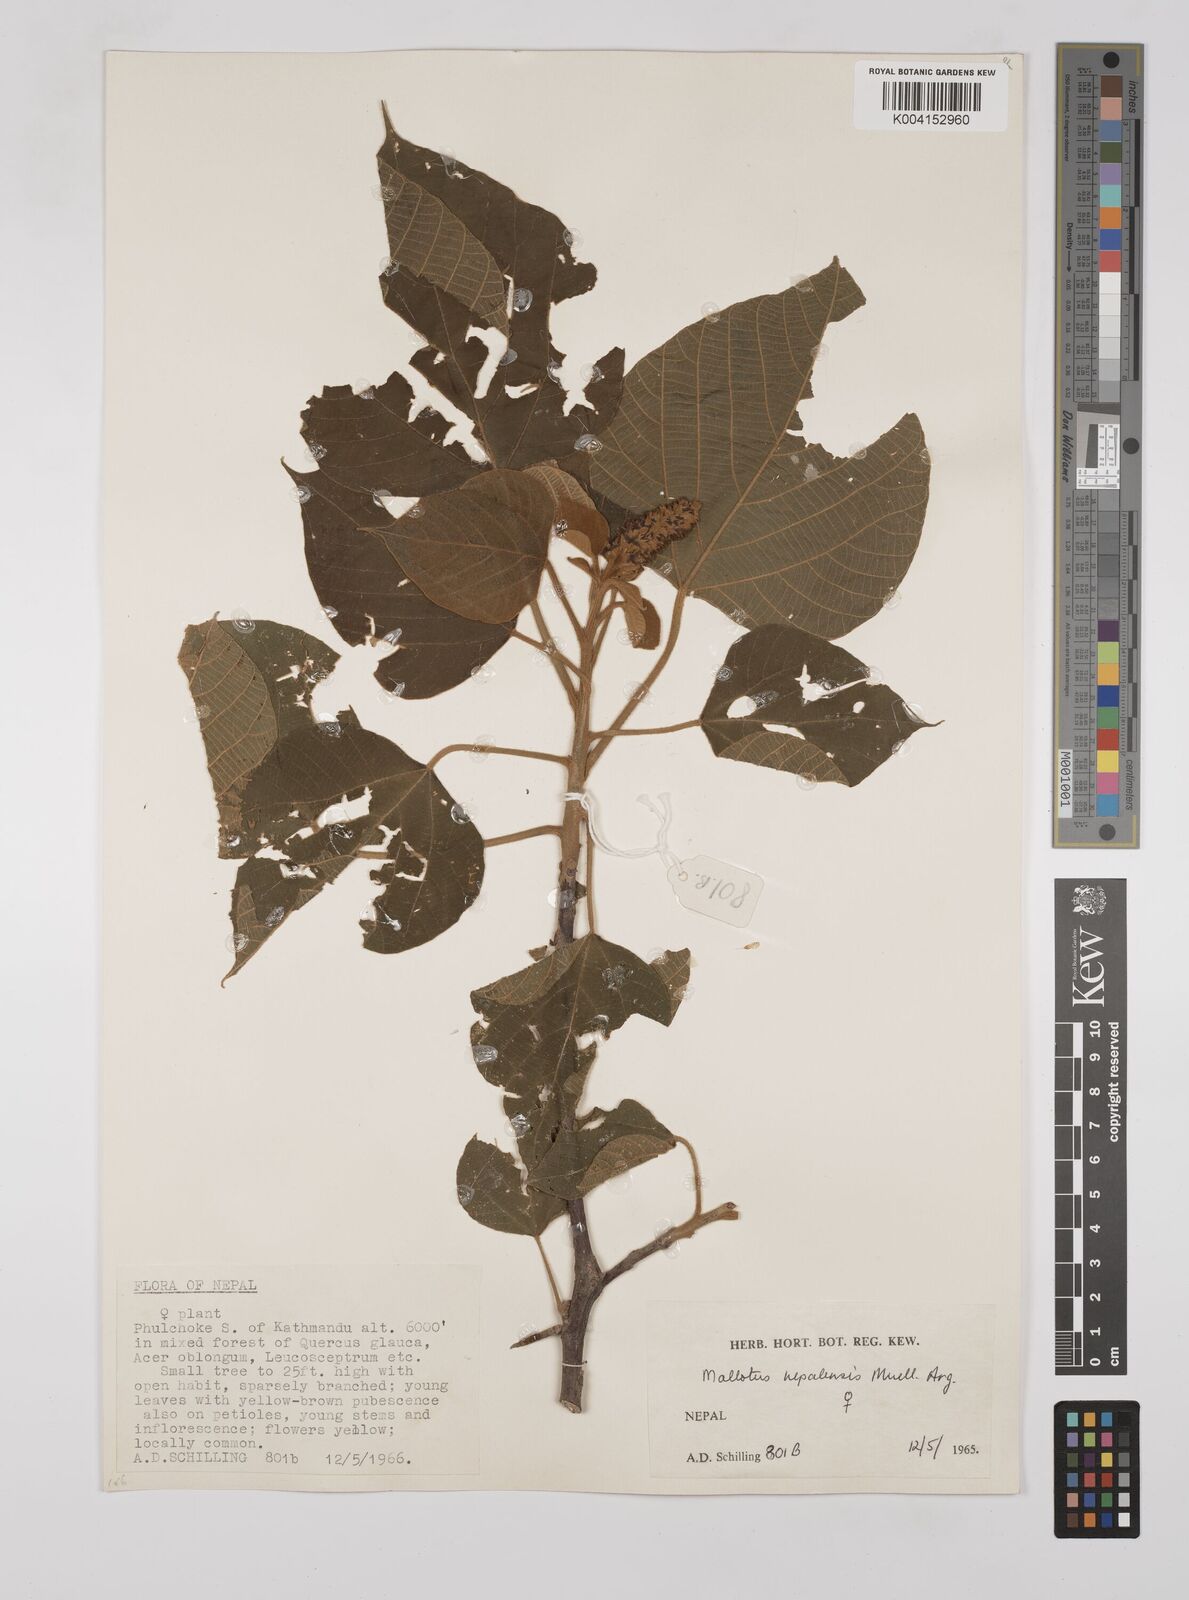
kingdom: Plantae
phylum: Tracheophyta
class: Magnoliopsida
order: Malpighiales
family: Euphorbiaceae
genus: Mallotus
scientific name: Mallotus nepalensis
